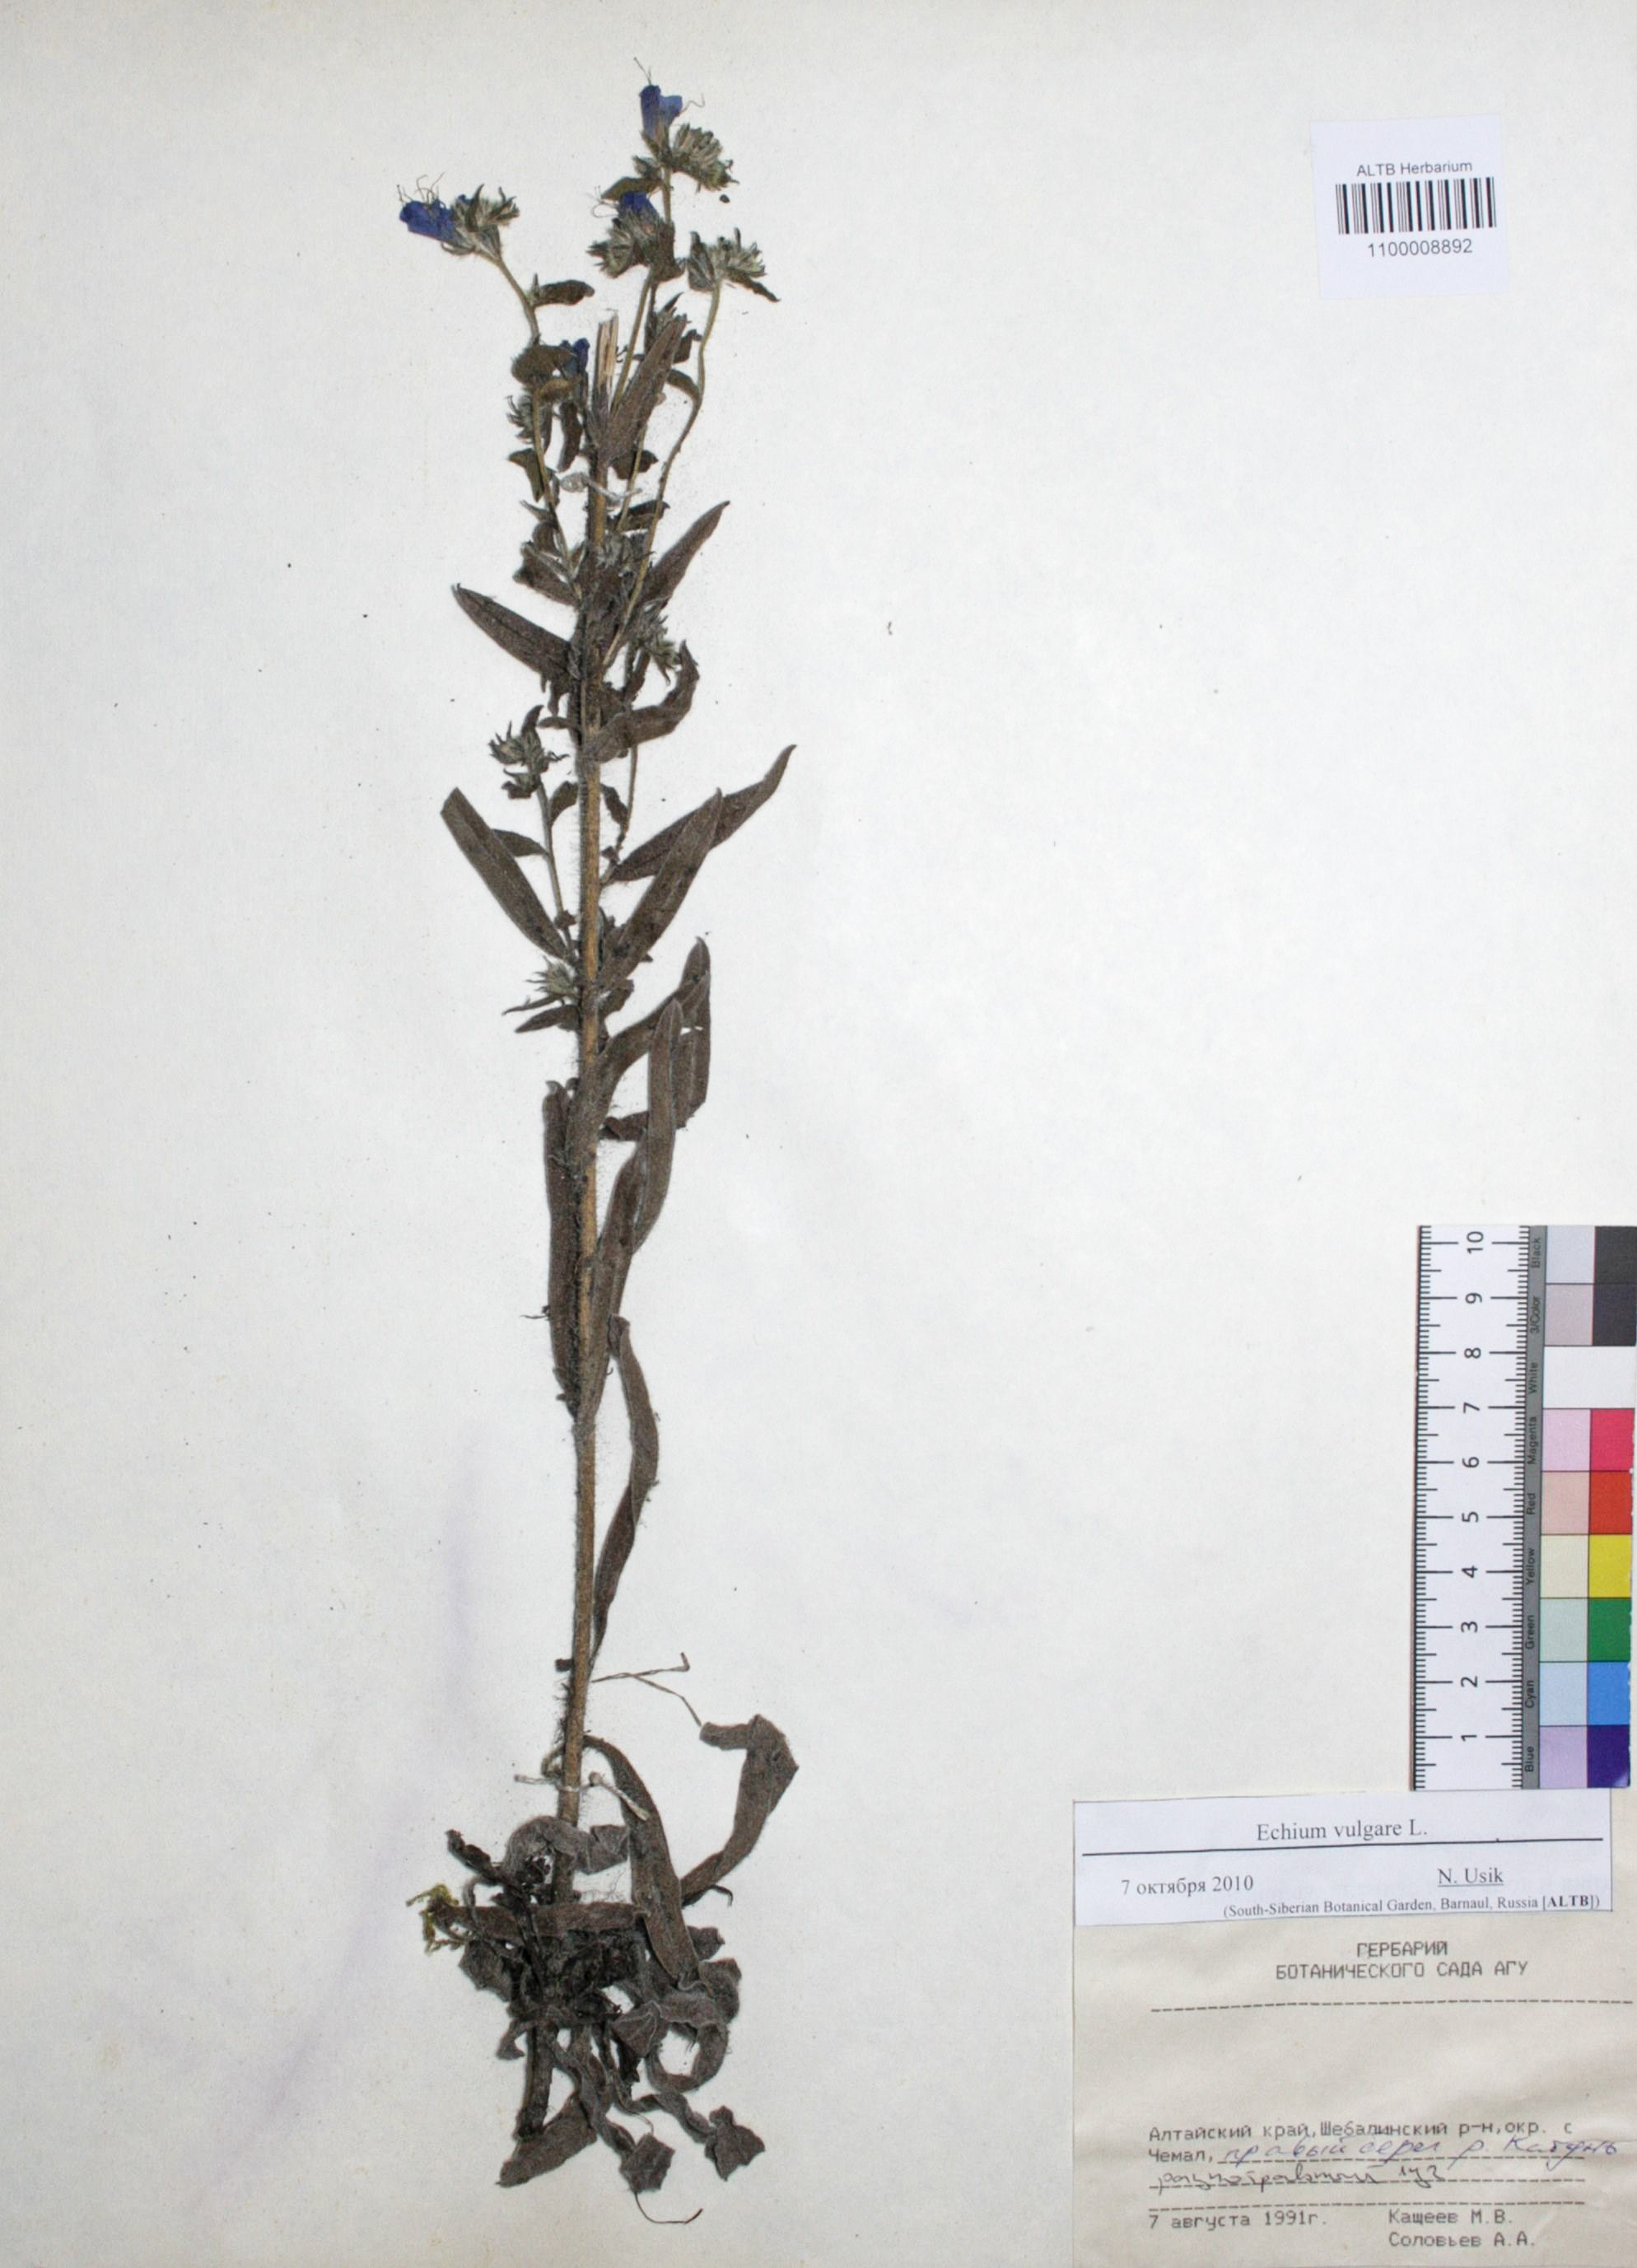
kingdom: Plantae
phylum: Tracheophyta
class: Magnoliopsida
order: Boraginales
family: Boraginaceae
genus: Echium
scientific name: Echium vulgare
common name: Common viper's bugloss
